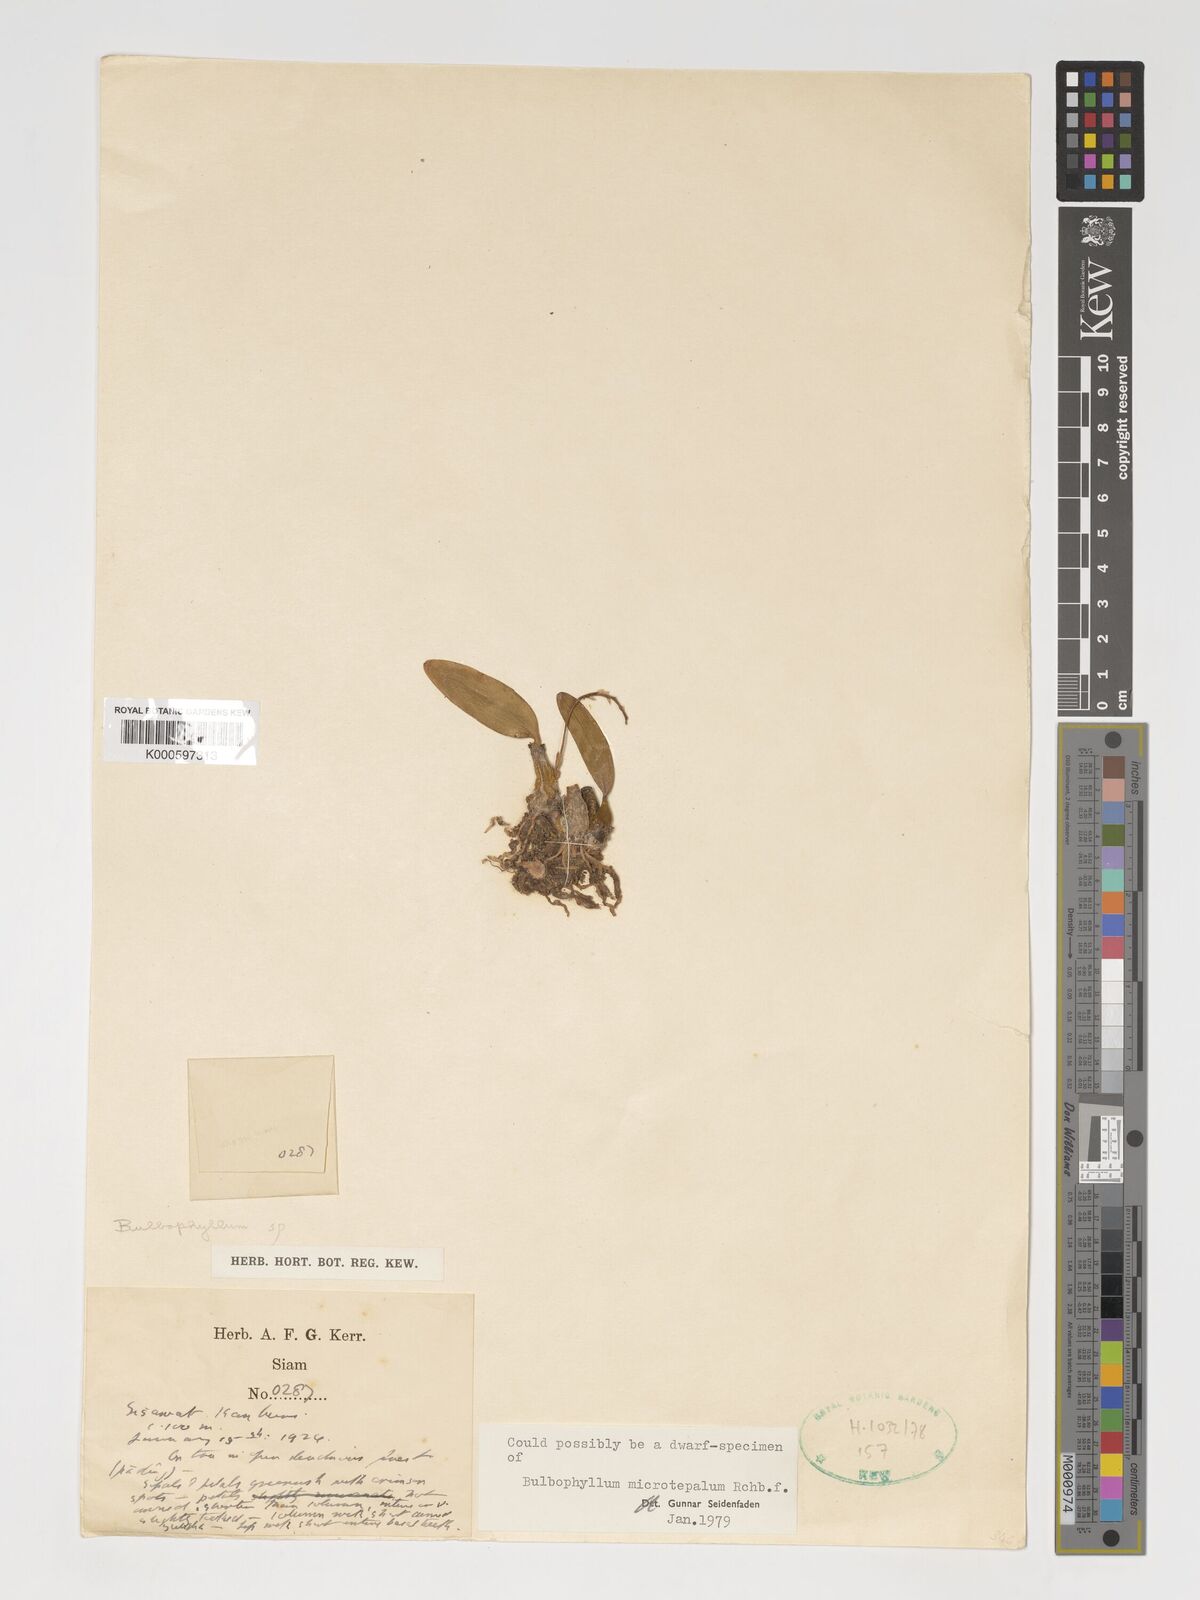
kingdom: Plantae
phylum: Tracheophyta
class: Liliopsida
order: Asparagales
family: Orchidaceae
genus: Bulbophyllum
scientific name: Bulbophyllum morphologorum
